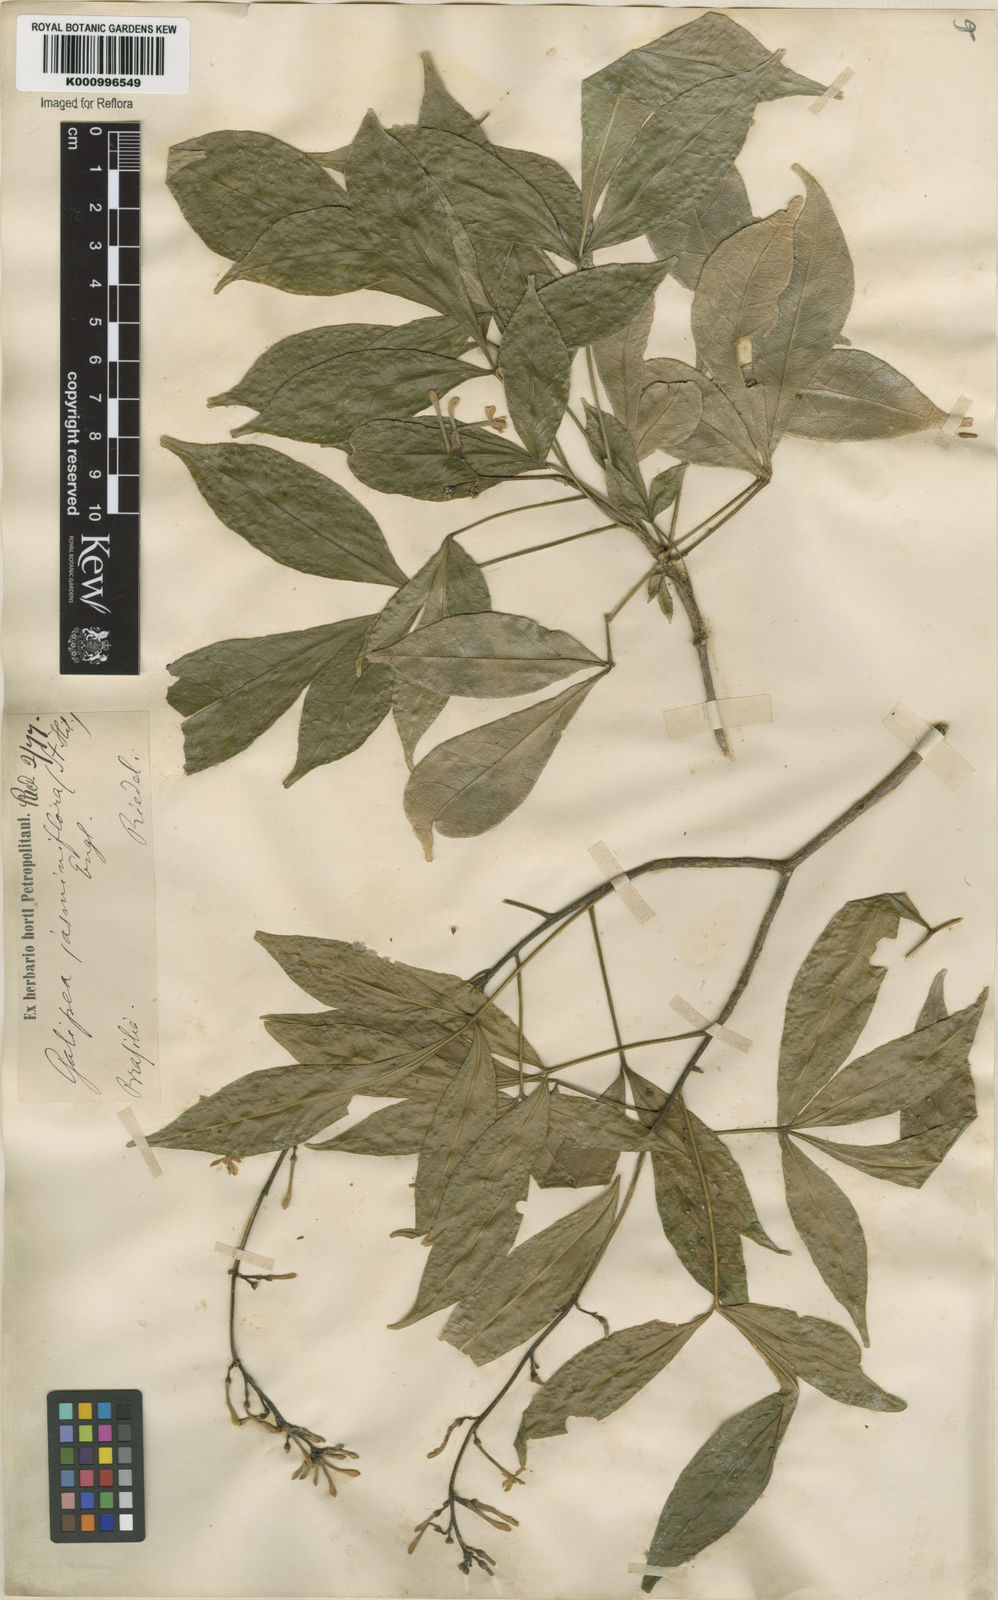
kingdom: Plantae
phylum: Tracheophyta
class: Magnoliopsida
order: Sapindales
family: Rutaceae
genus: Galipea
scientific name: Galipea
